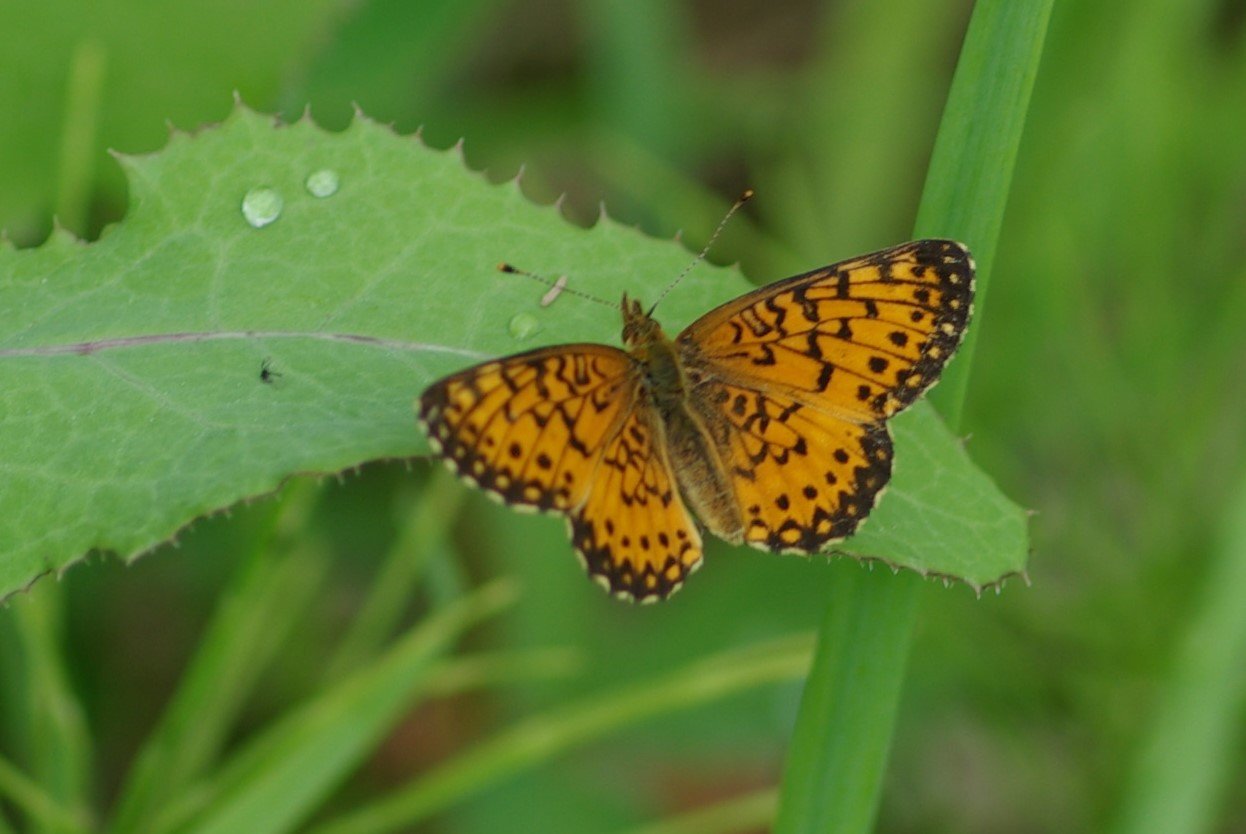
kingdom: Animalia
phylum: Arthropoda
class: Insecta
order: Lepidoptera
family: Nymphalidae
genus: Boloria
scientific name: Boloria selene
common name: Silver-bordered Fritillary
